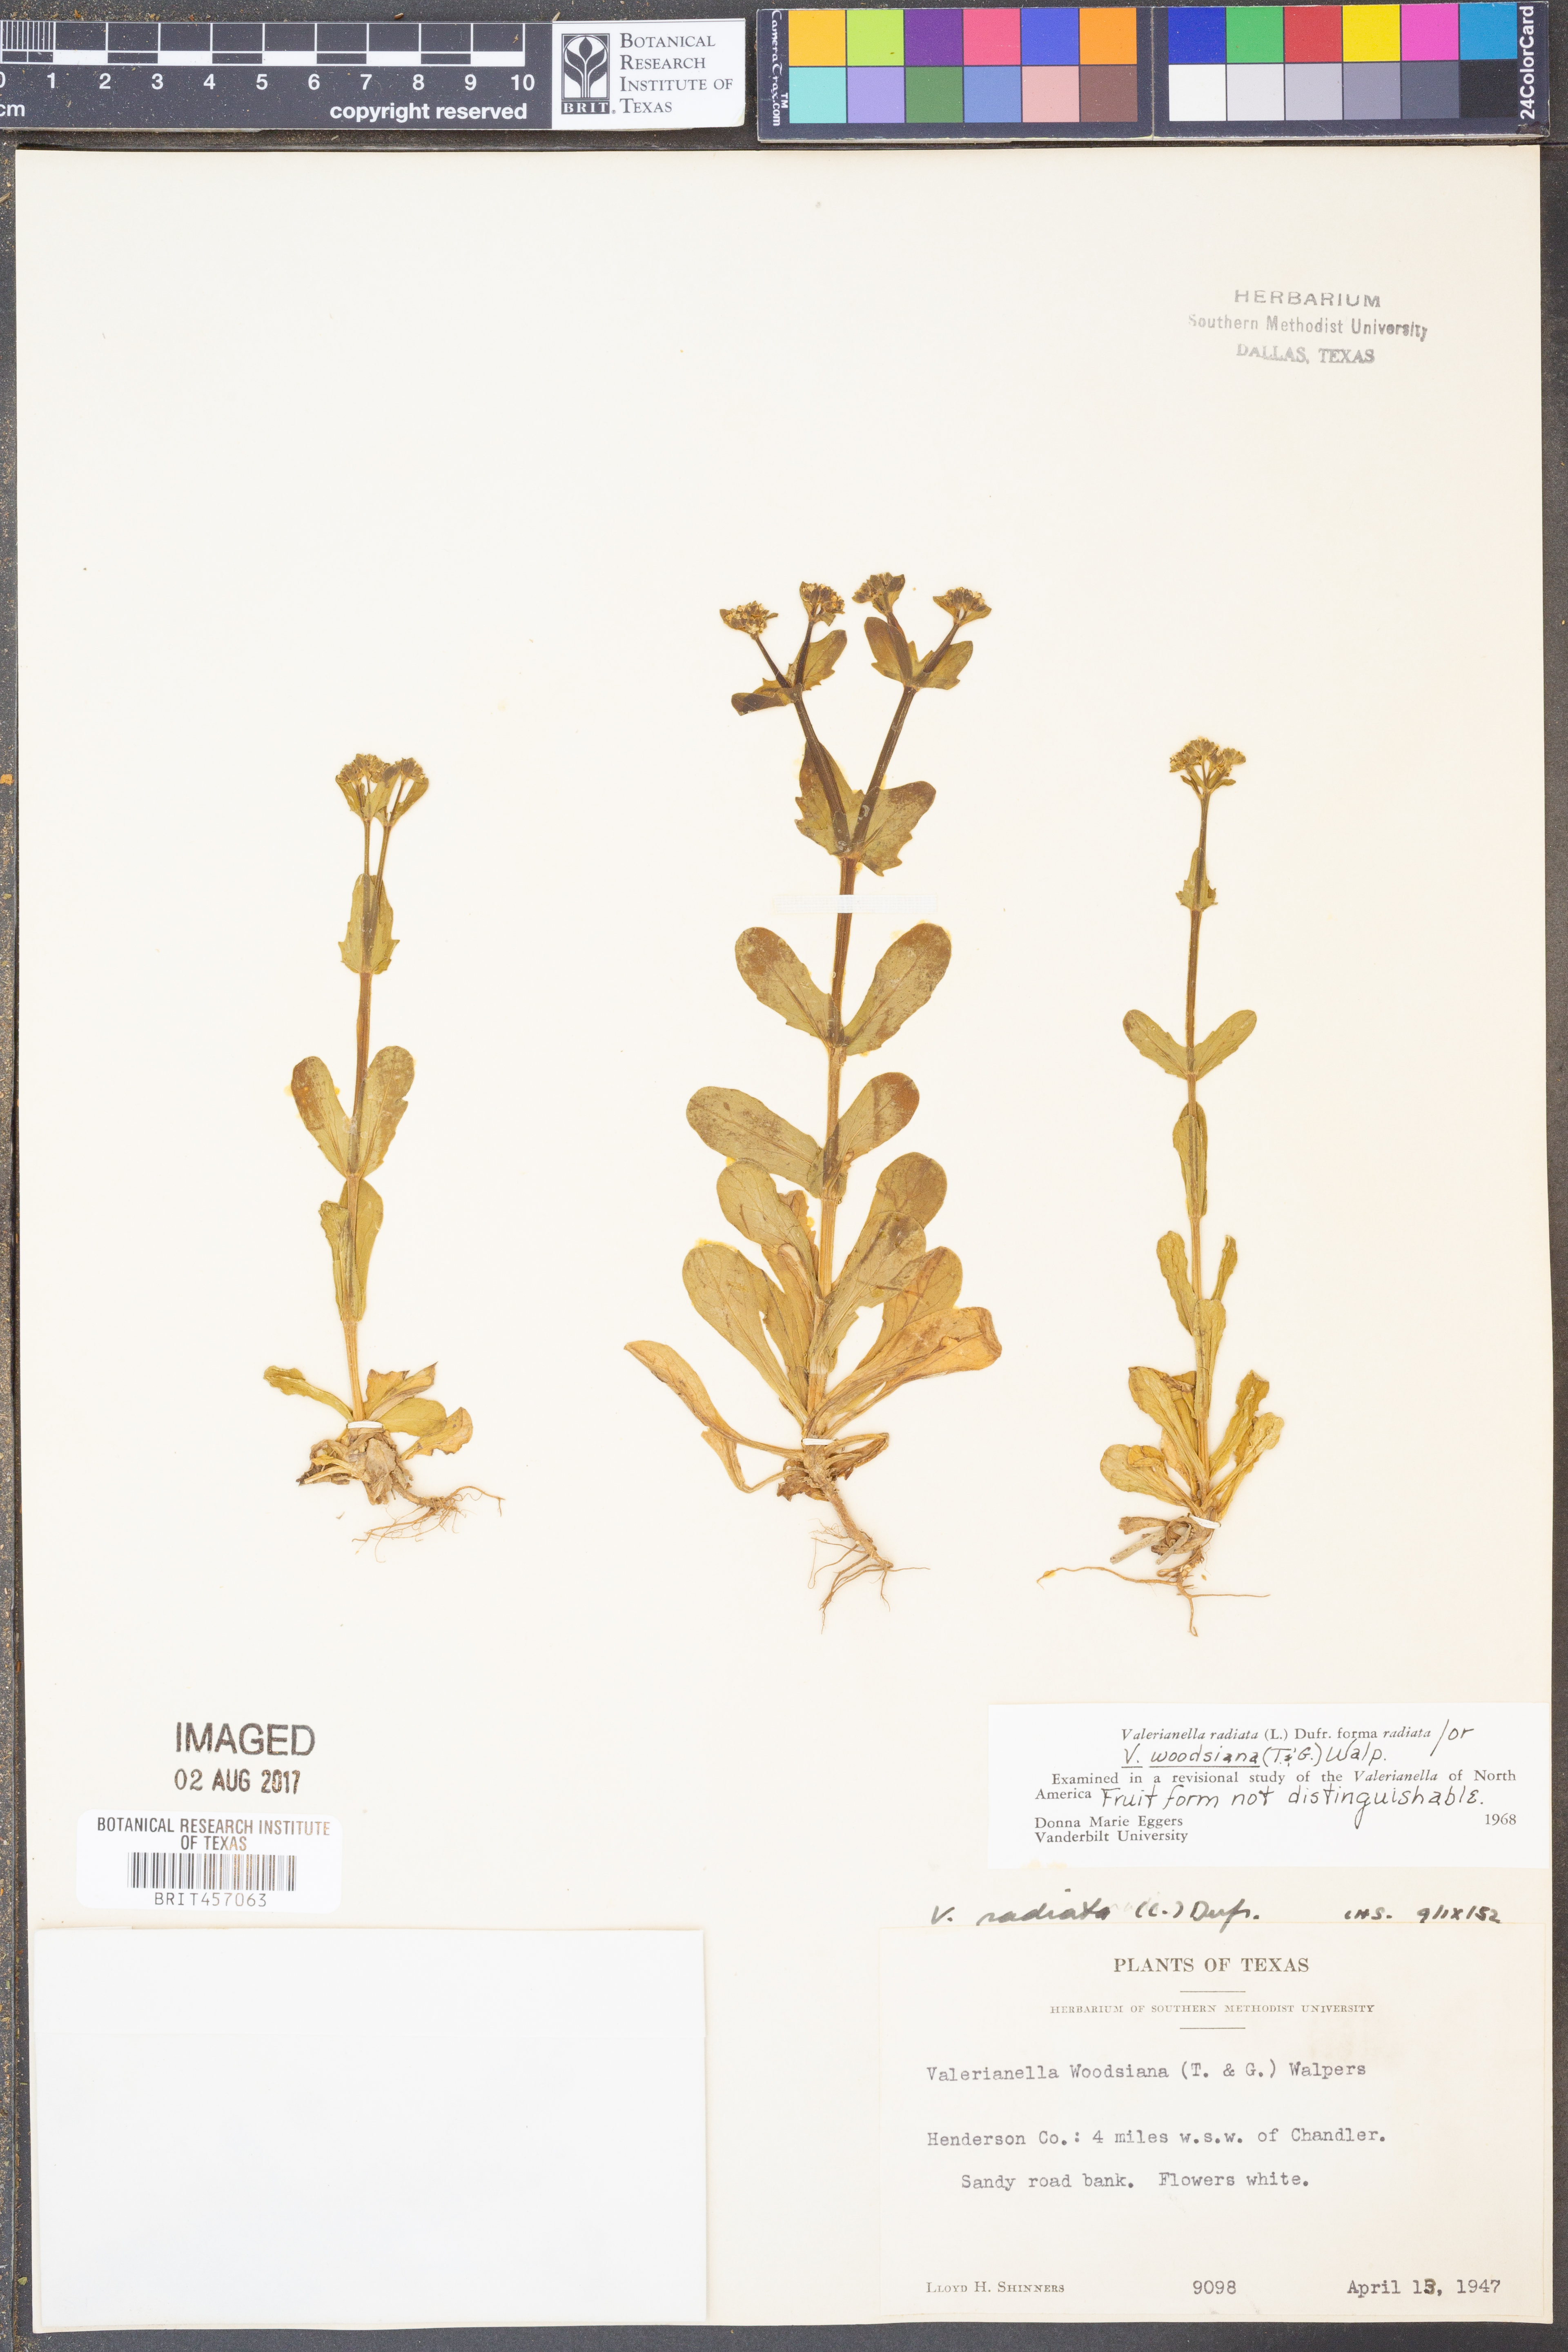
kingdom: Plantae
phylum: Tracheophyta
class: Magnoliopsida
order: Dipsacales
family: Caprifoliaceae
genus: Valerianella
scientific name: Valerianella radiata
